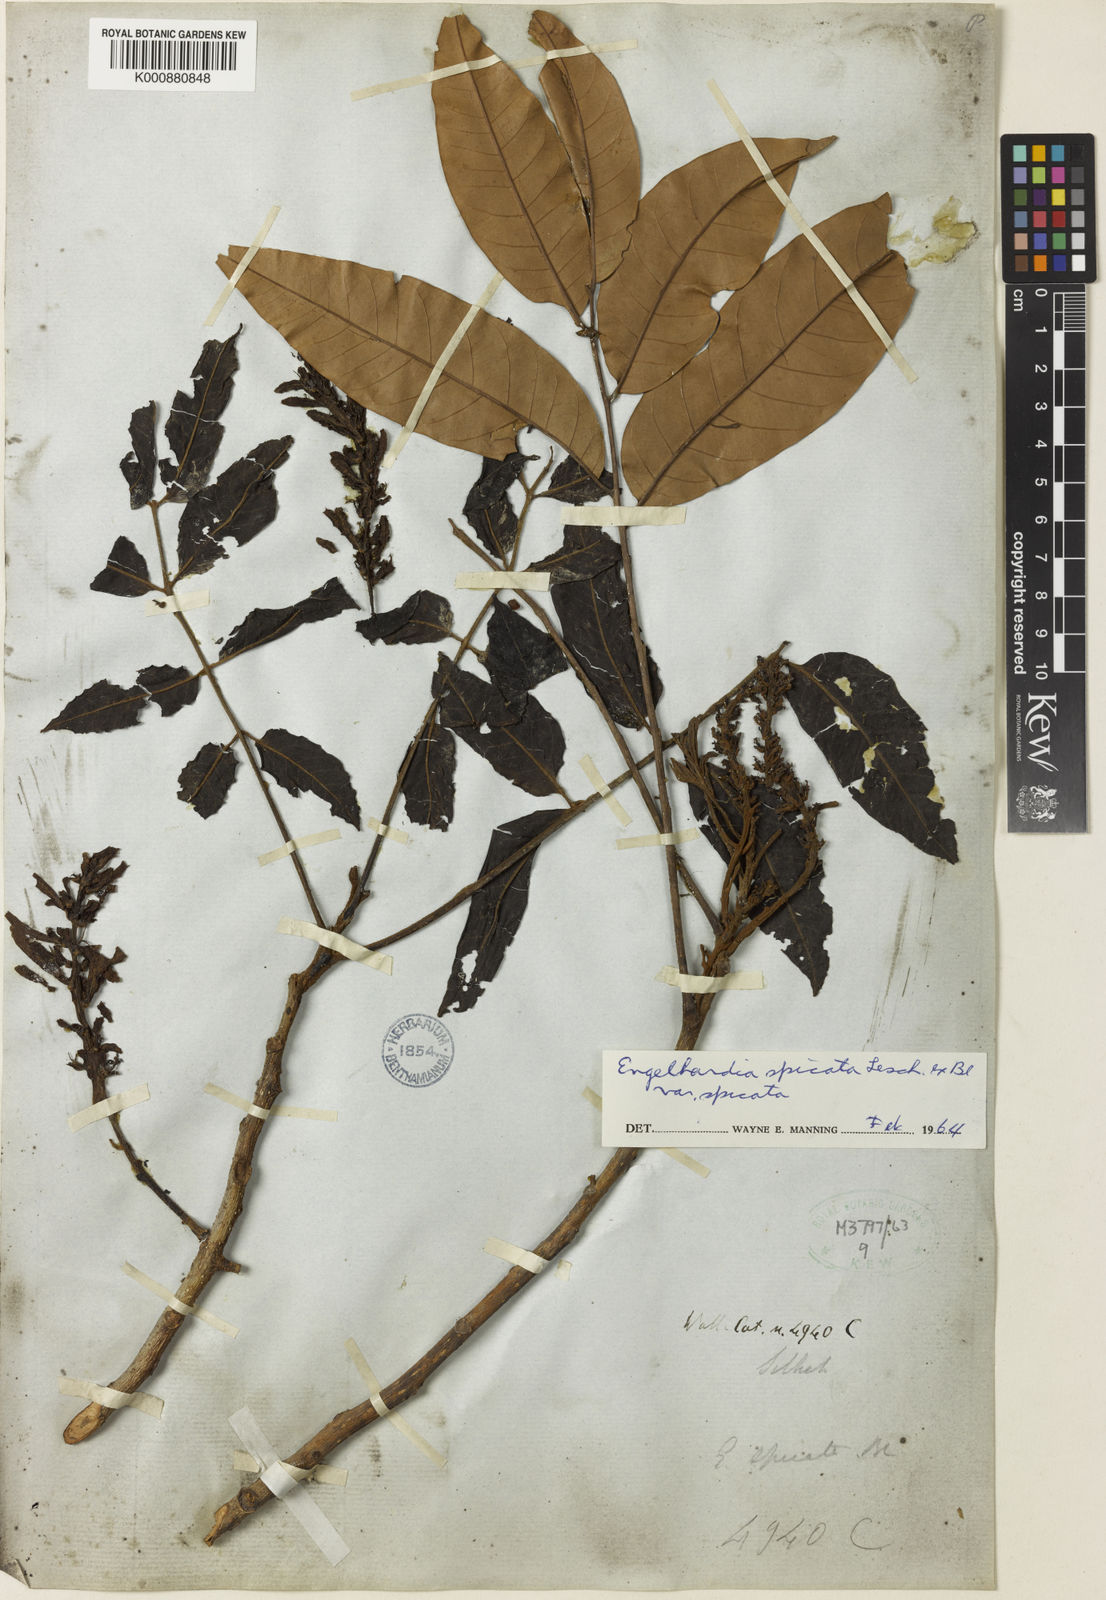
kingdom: Plantae
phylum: Tracheophyta
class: Magnoliopsida
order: Fagales
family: Juglandaceae
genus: Engelhardia
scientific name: Engelhardia spicata
